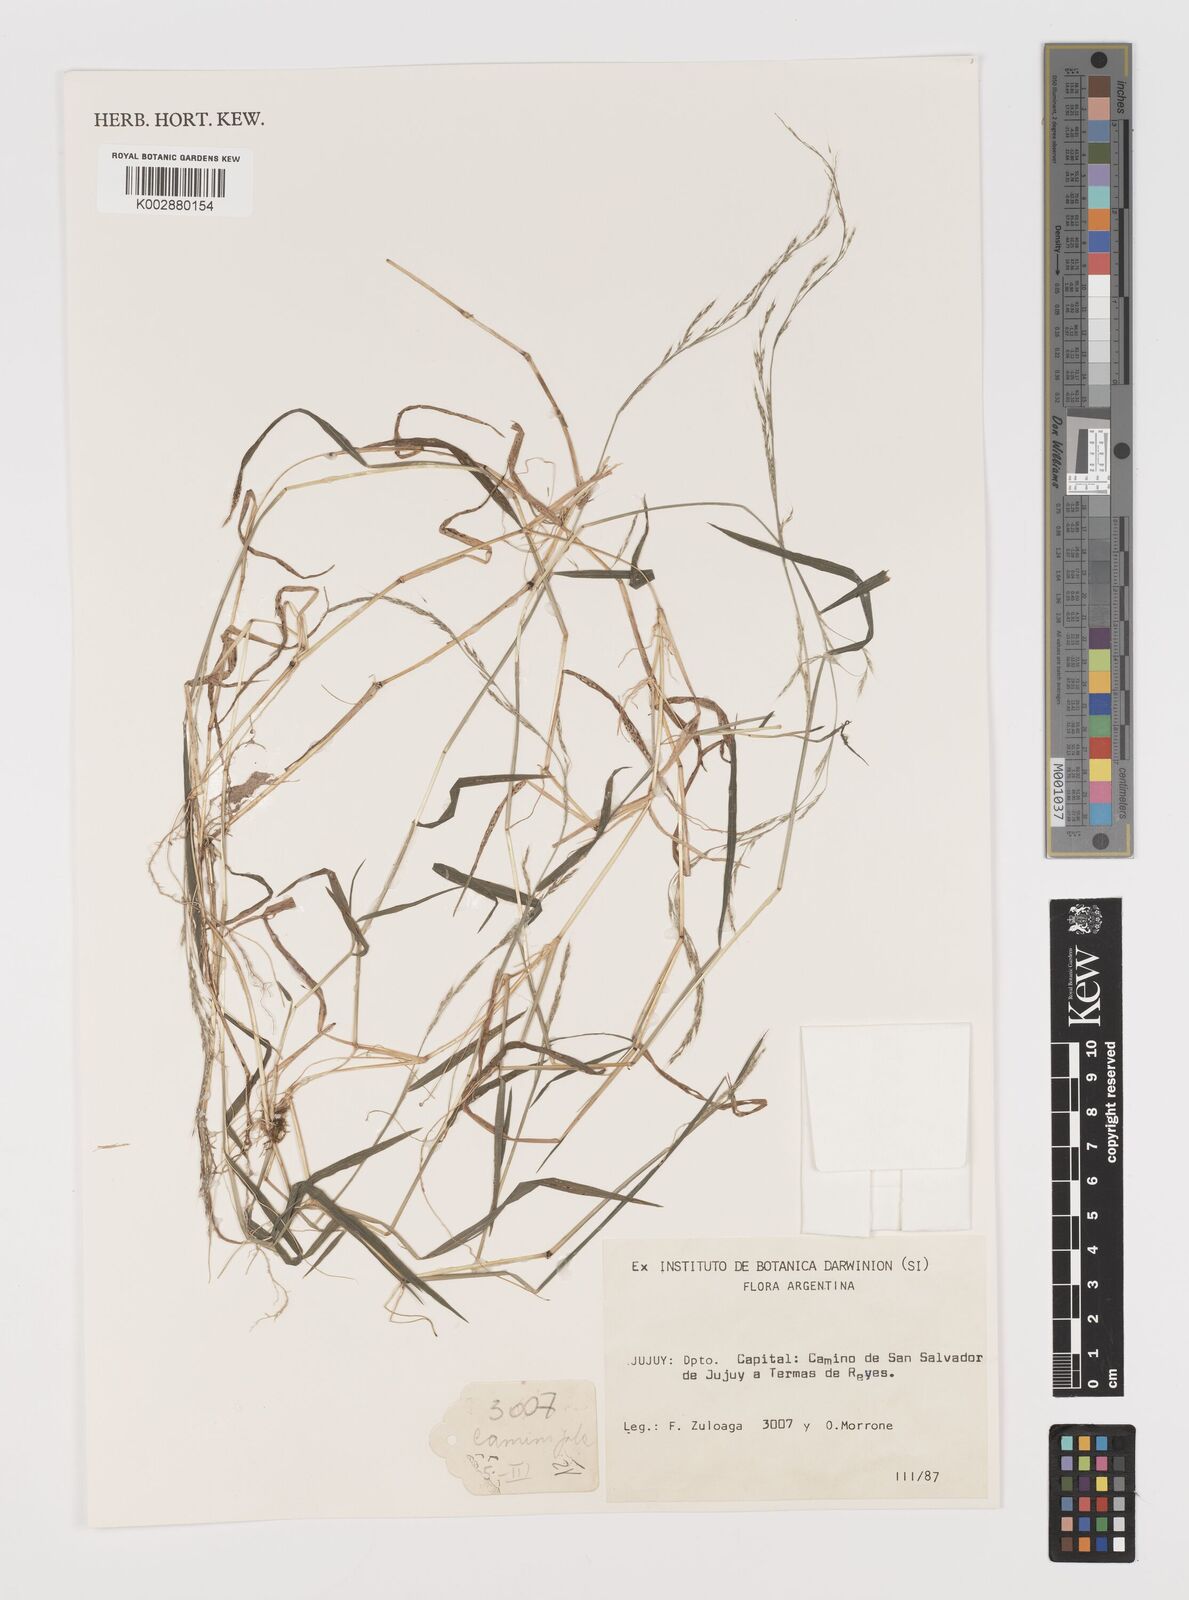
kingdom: Plantae
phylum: Tracheophyta
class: Liliopsida
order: Poales
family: Poaceae
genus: Muhlenbergia
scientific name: Muhlenbergia schreberi
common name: Nimblewill
